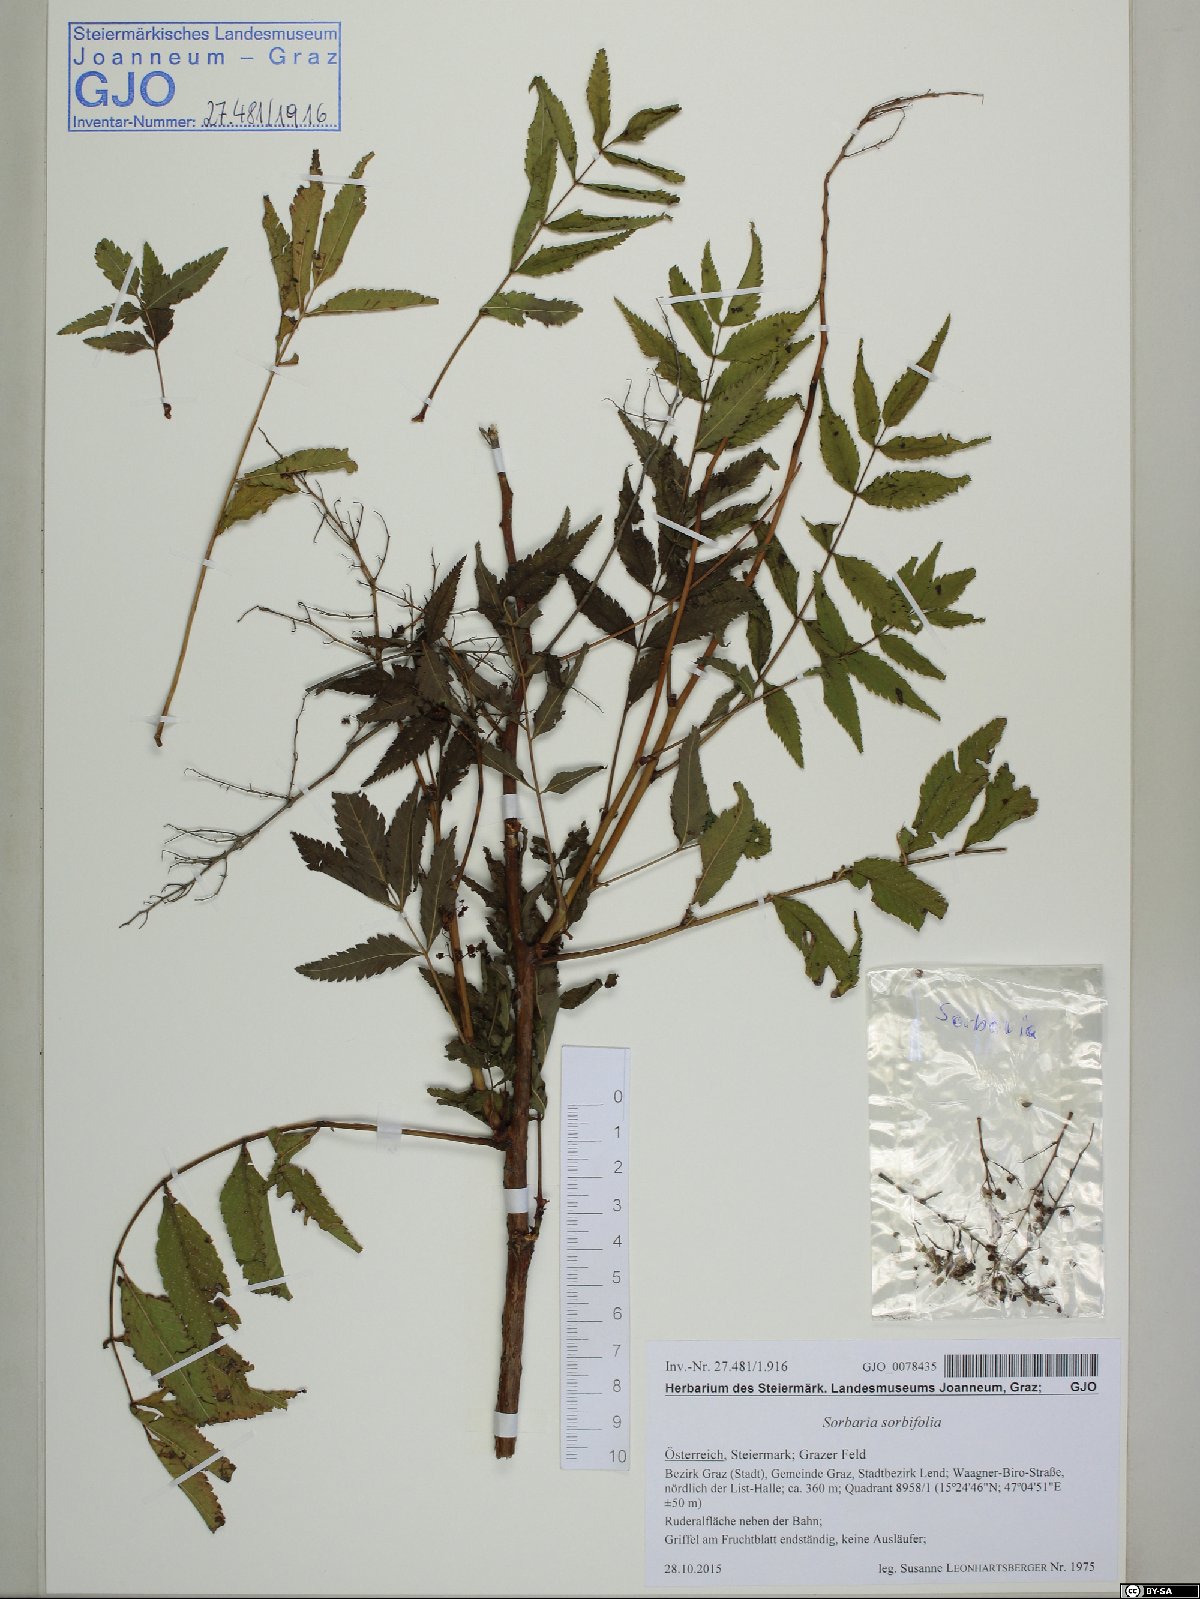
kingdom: Plantae
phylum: Tracheophyta
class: Magnoliopsida
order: Rosales
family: Rosaceae
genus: Sorbaria
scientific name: Sorbaria sorbifolia
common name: False spiraea
